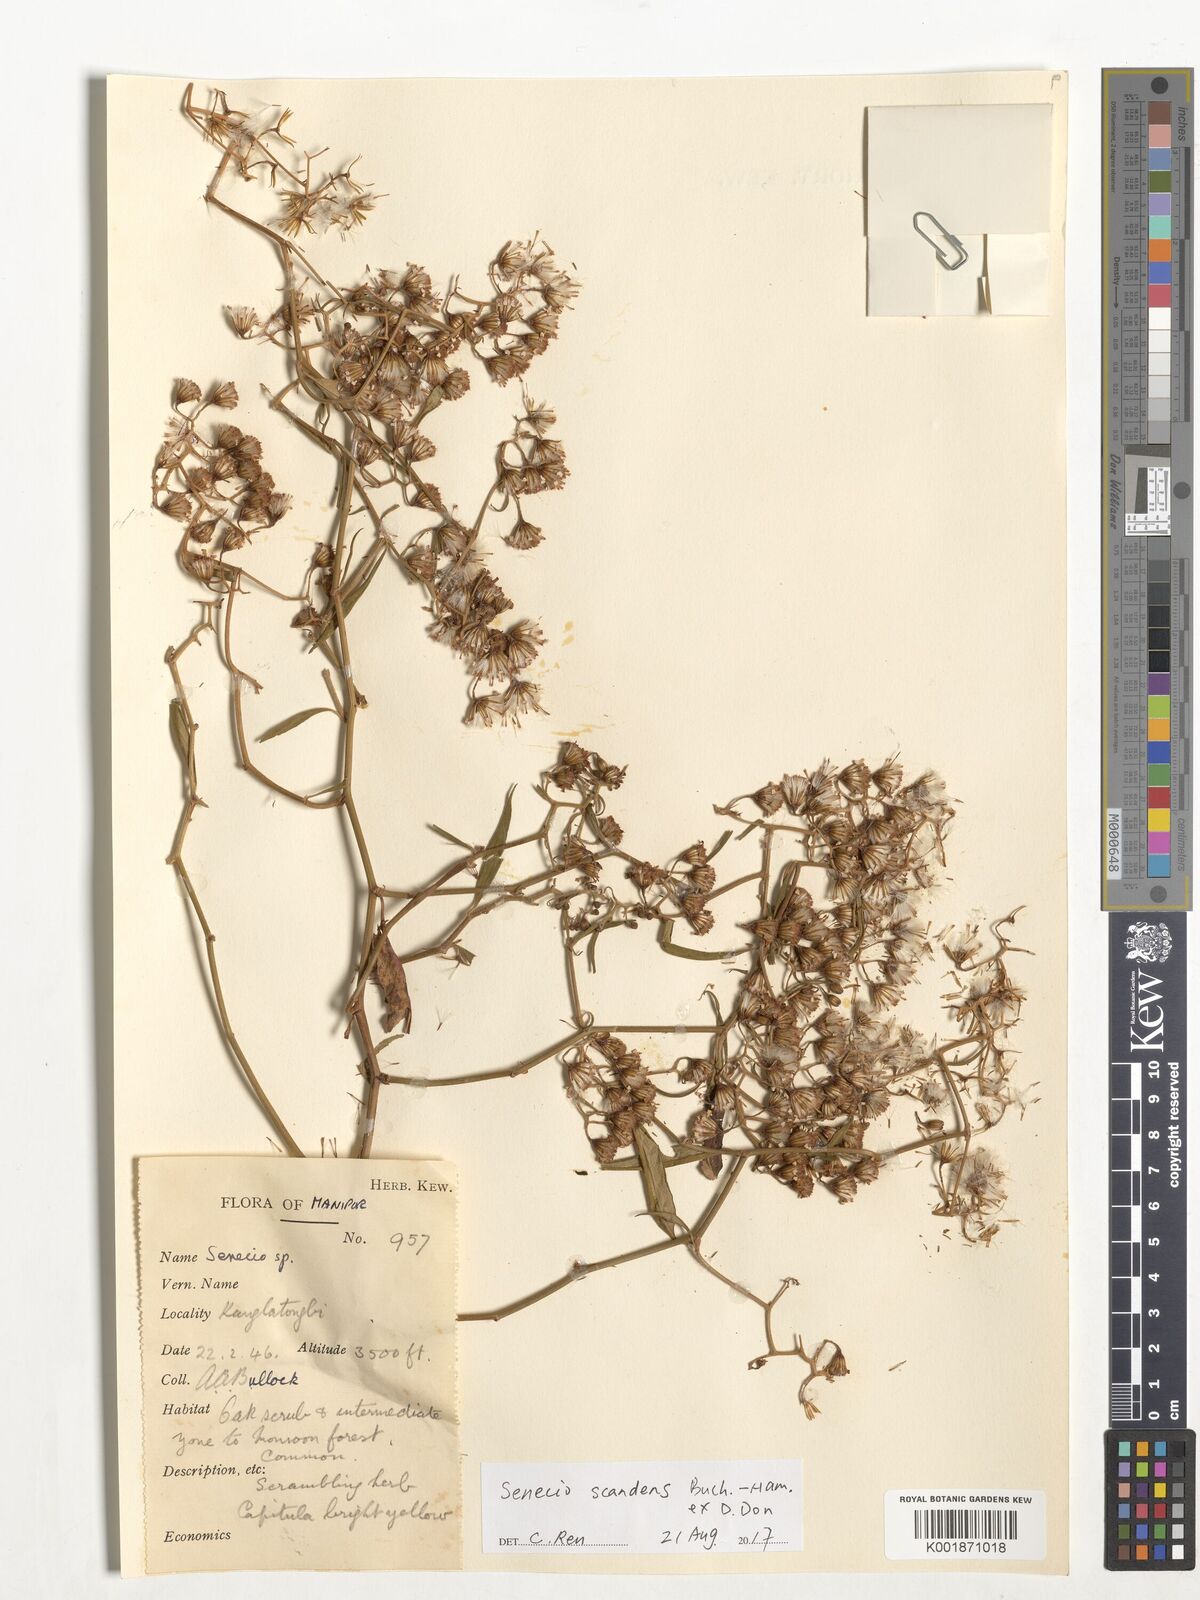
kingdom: Plantae
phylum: Tracheophyta
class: Magnoliopsida
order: Asterales
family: Asteraceae
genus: Senecio
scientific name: Senecio scandens
